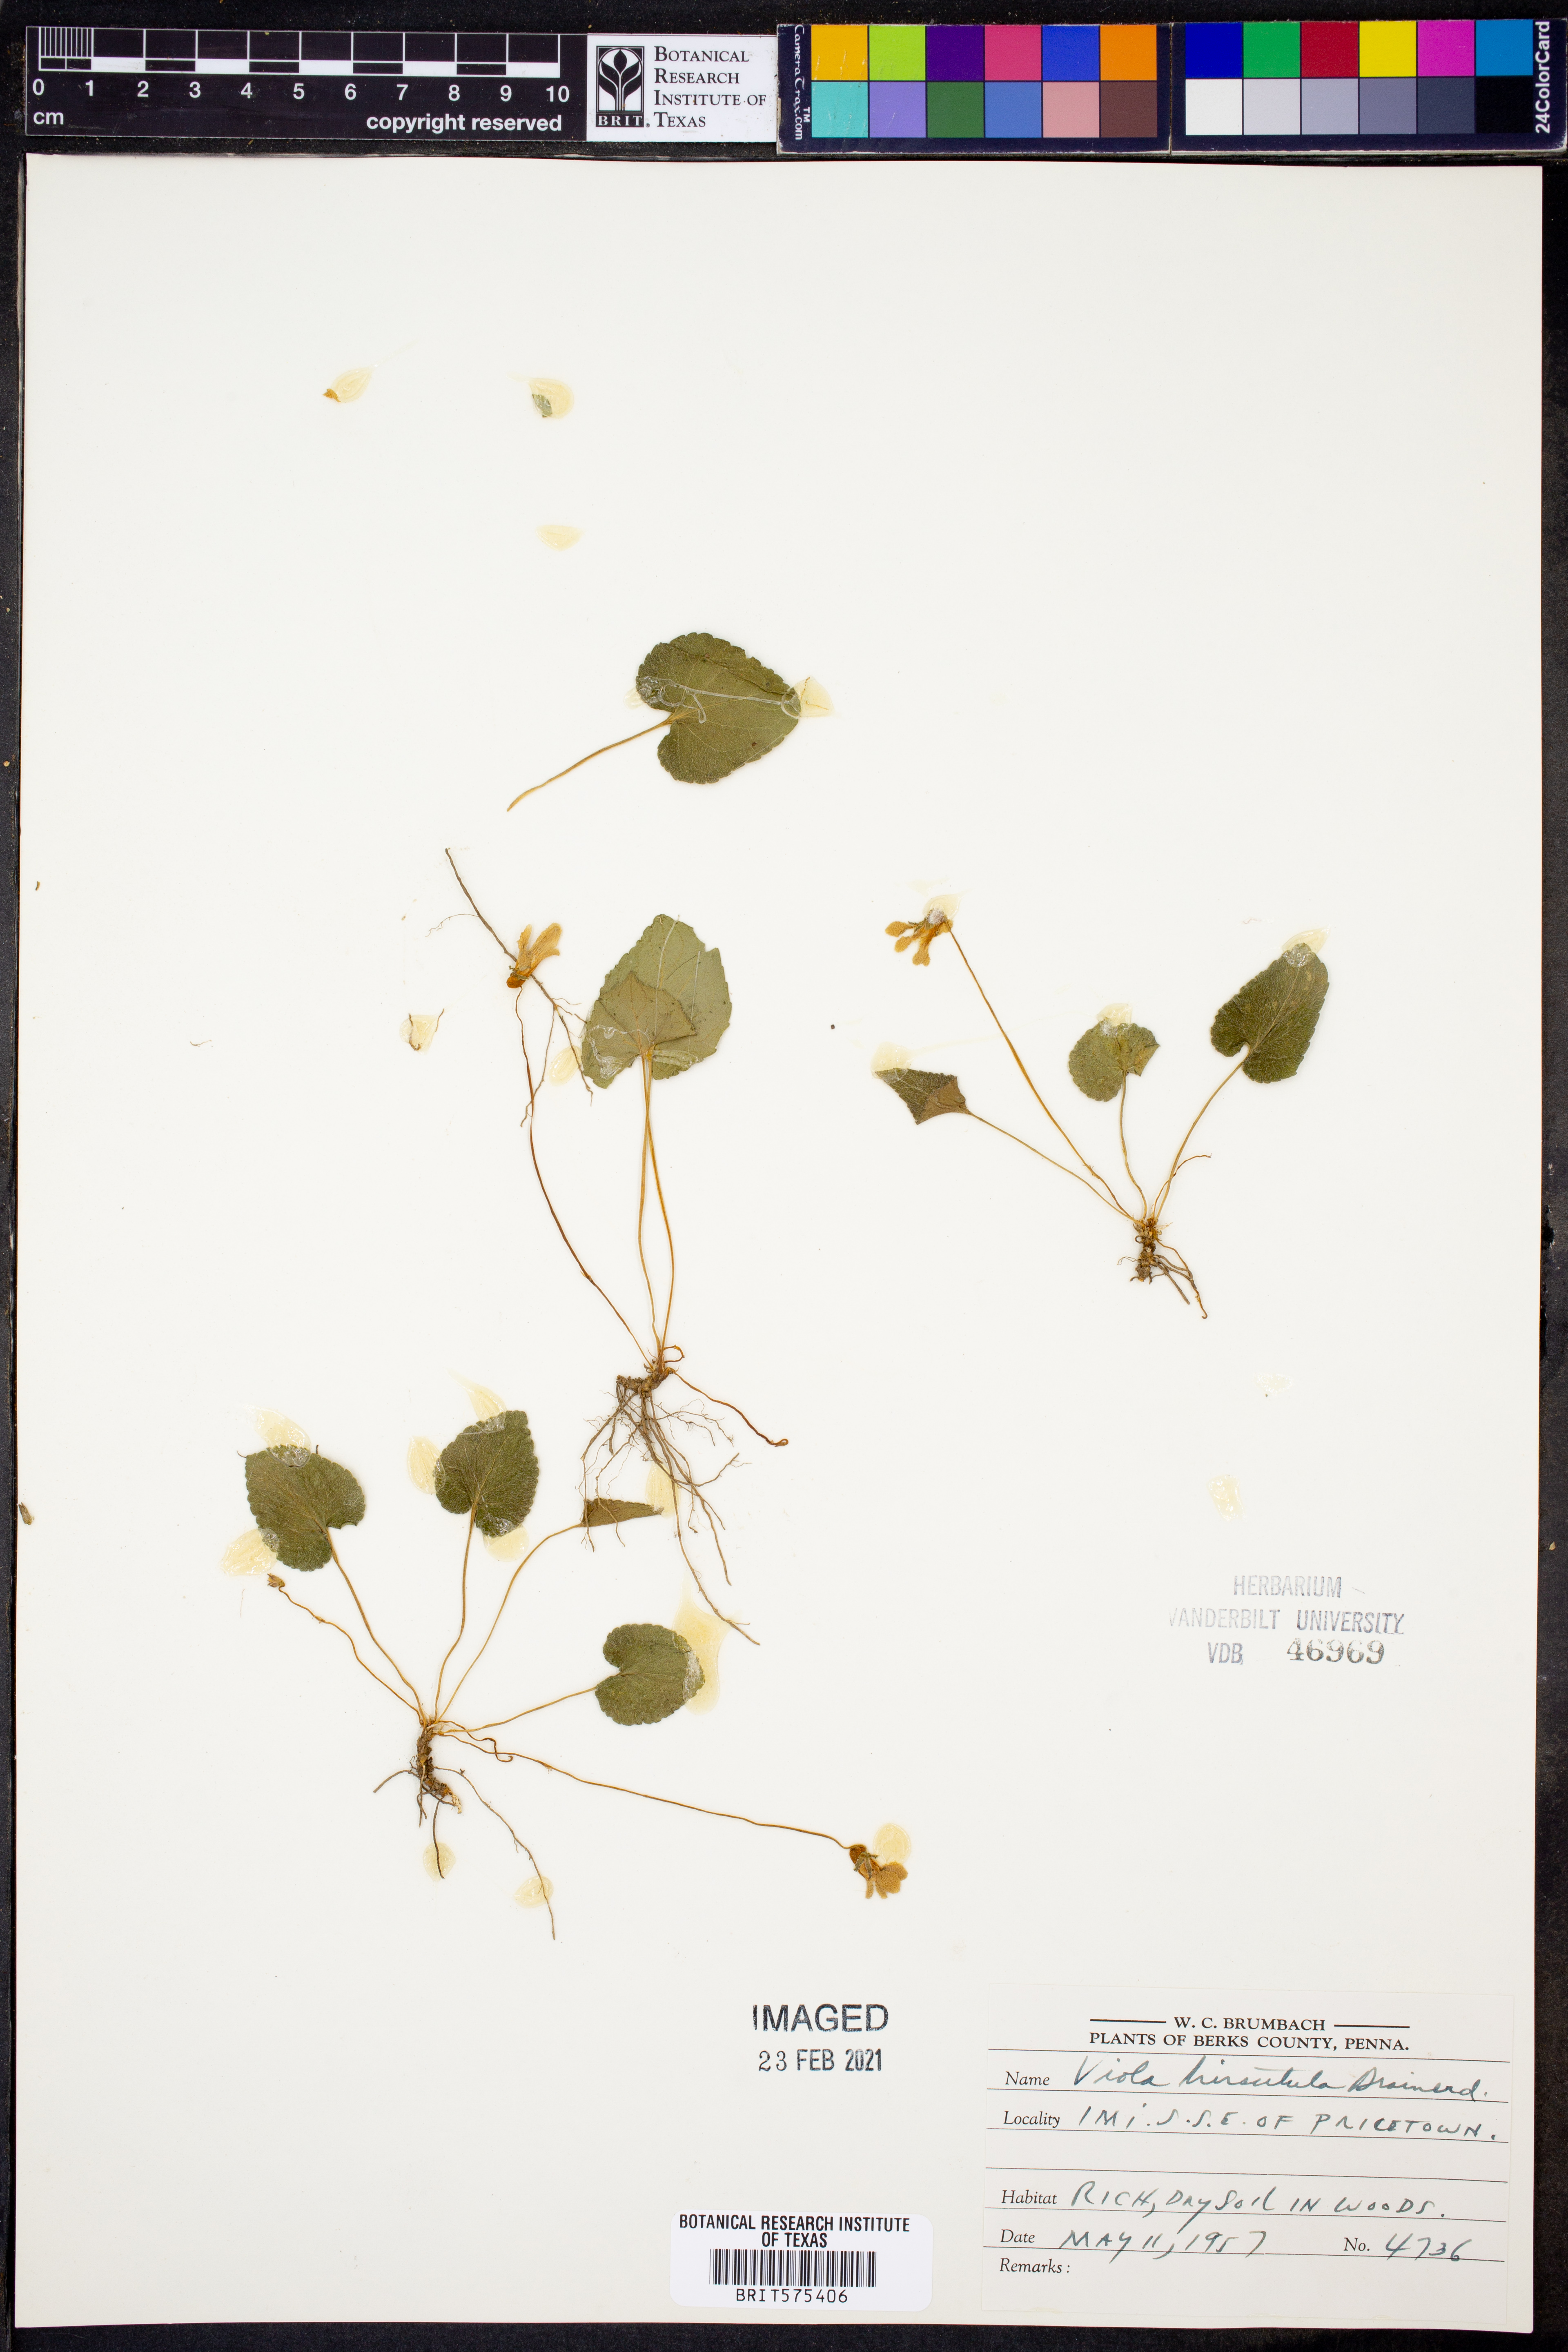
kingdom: Plantae
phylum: Tracheophyta
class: Magnoliopsida
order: Malpighiales
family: Violaceae
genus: Viola
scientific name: Viola hirsutula
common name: Southern wood violet
